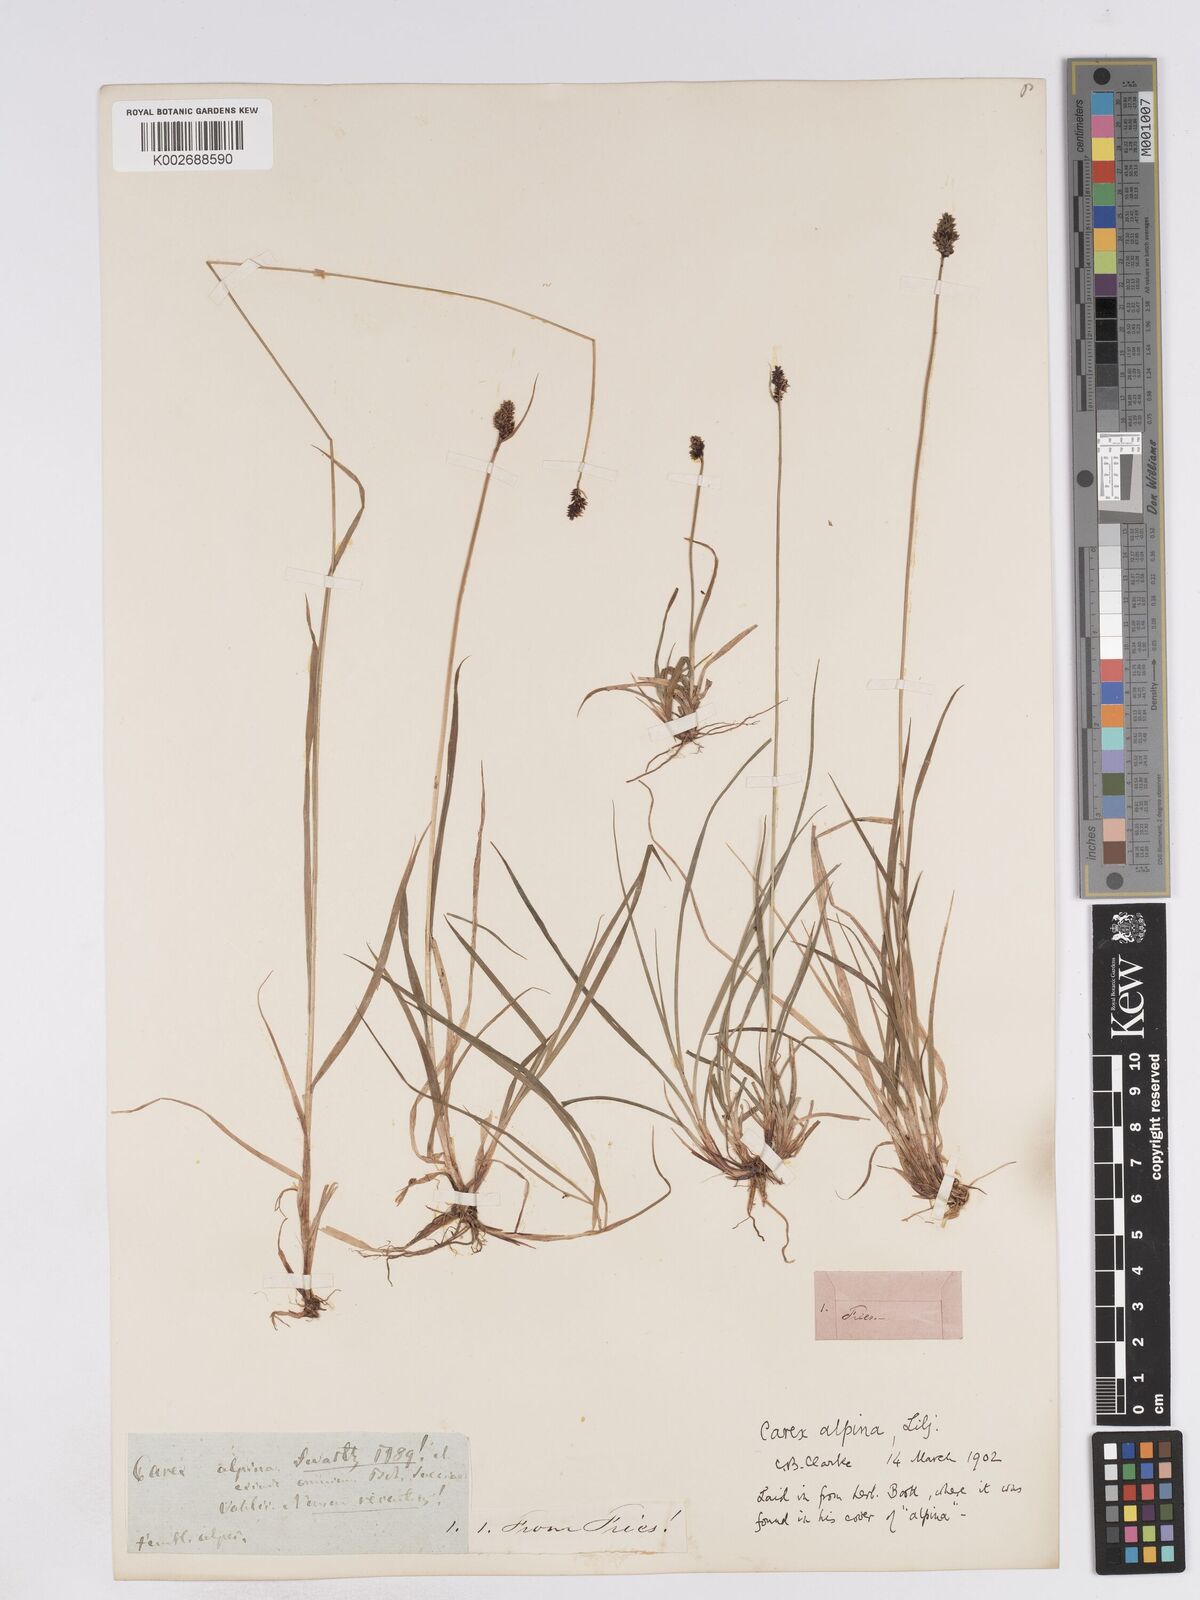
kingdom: Plantae
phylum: Tracheophyta
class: Liliopsida
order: Poales
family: Cyperaceae
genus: Carex
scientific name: Carex norvegica
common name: Close-headed alpine-sedge
